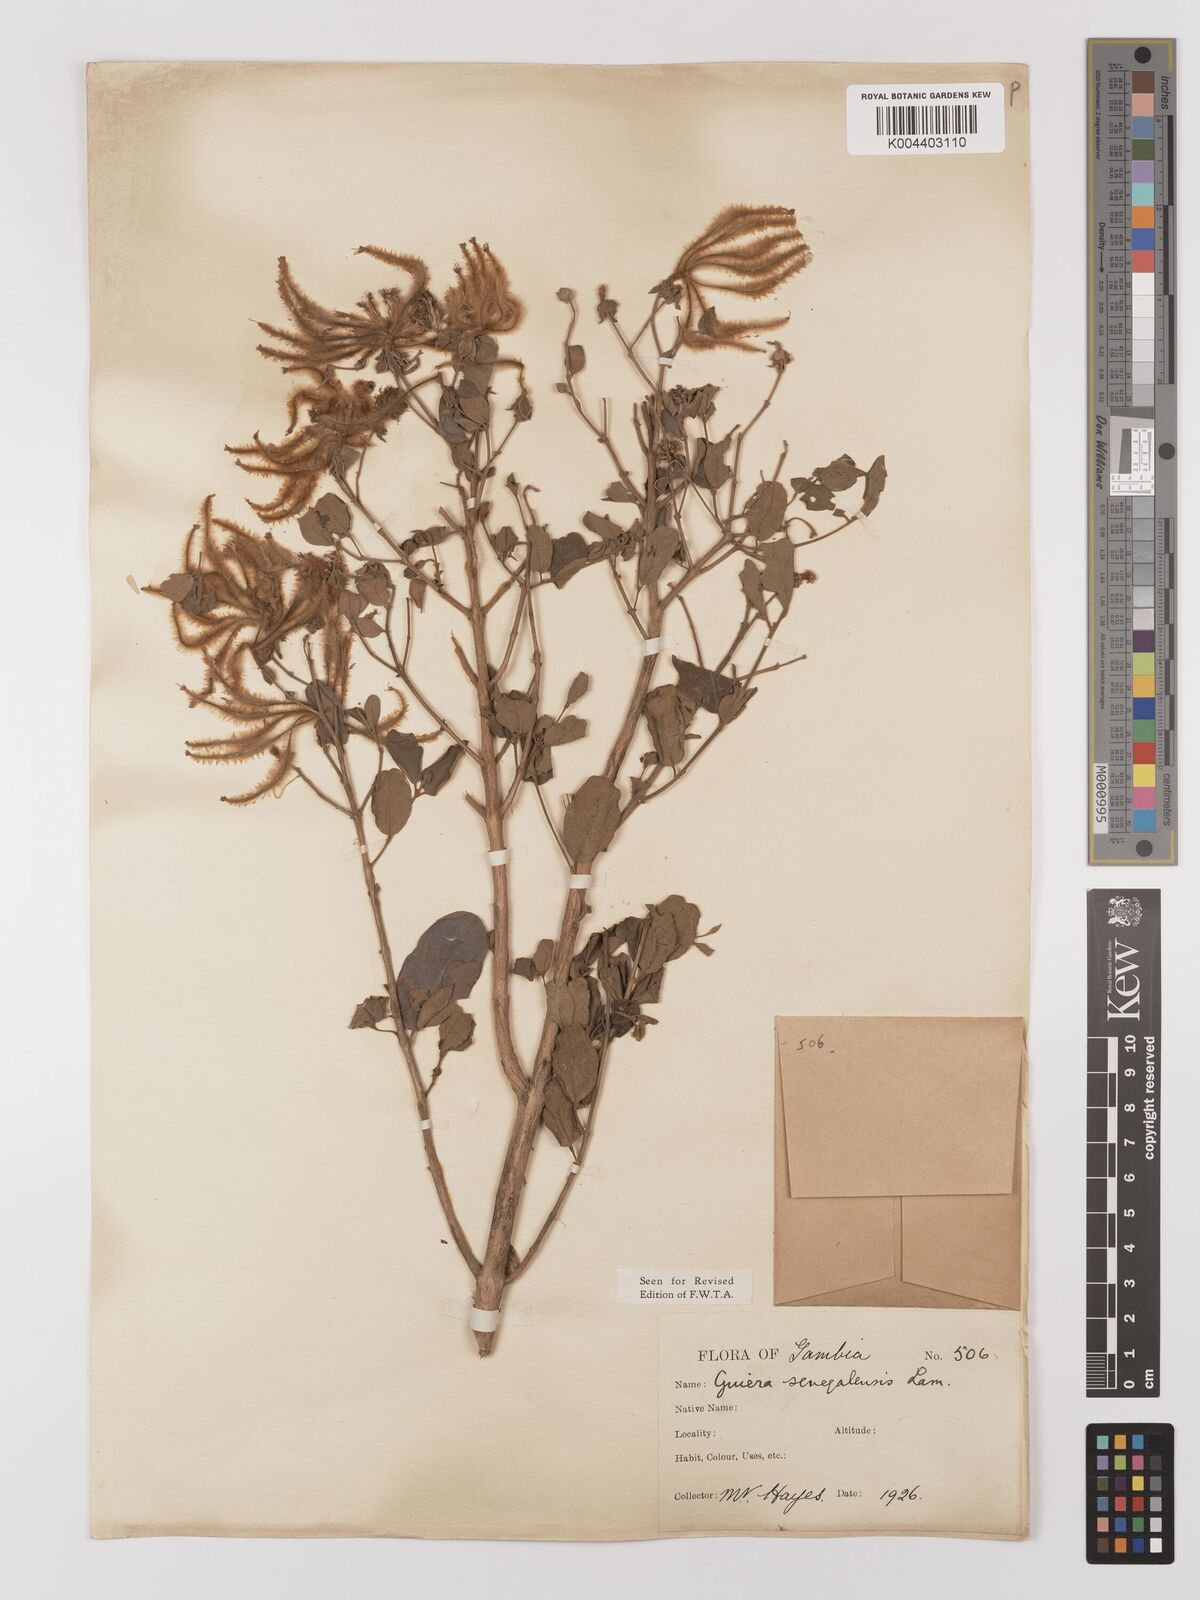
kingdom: Plantae
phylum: Tracheophyta
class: Magnoliopsida
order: Myrtales
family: Combretaceae
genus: Guiera
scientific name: Guiera senegalensis
